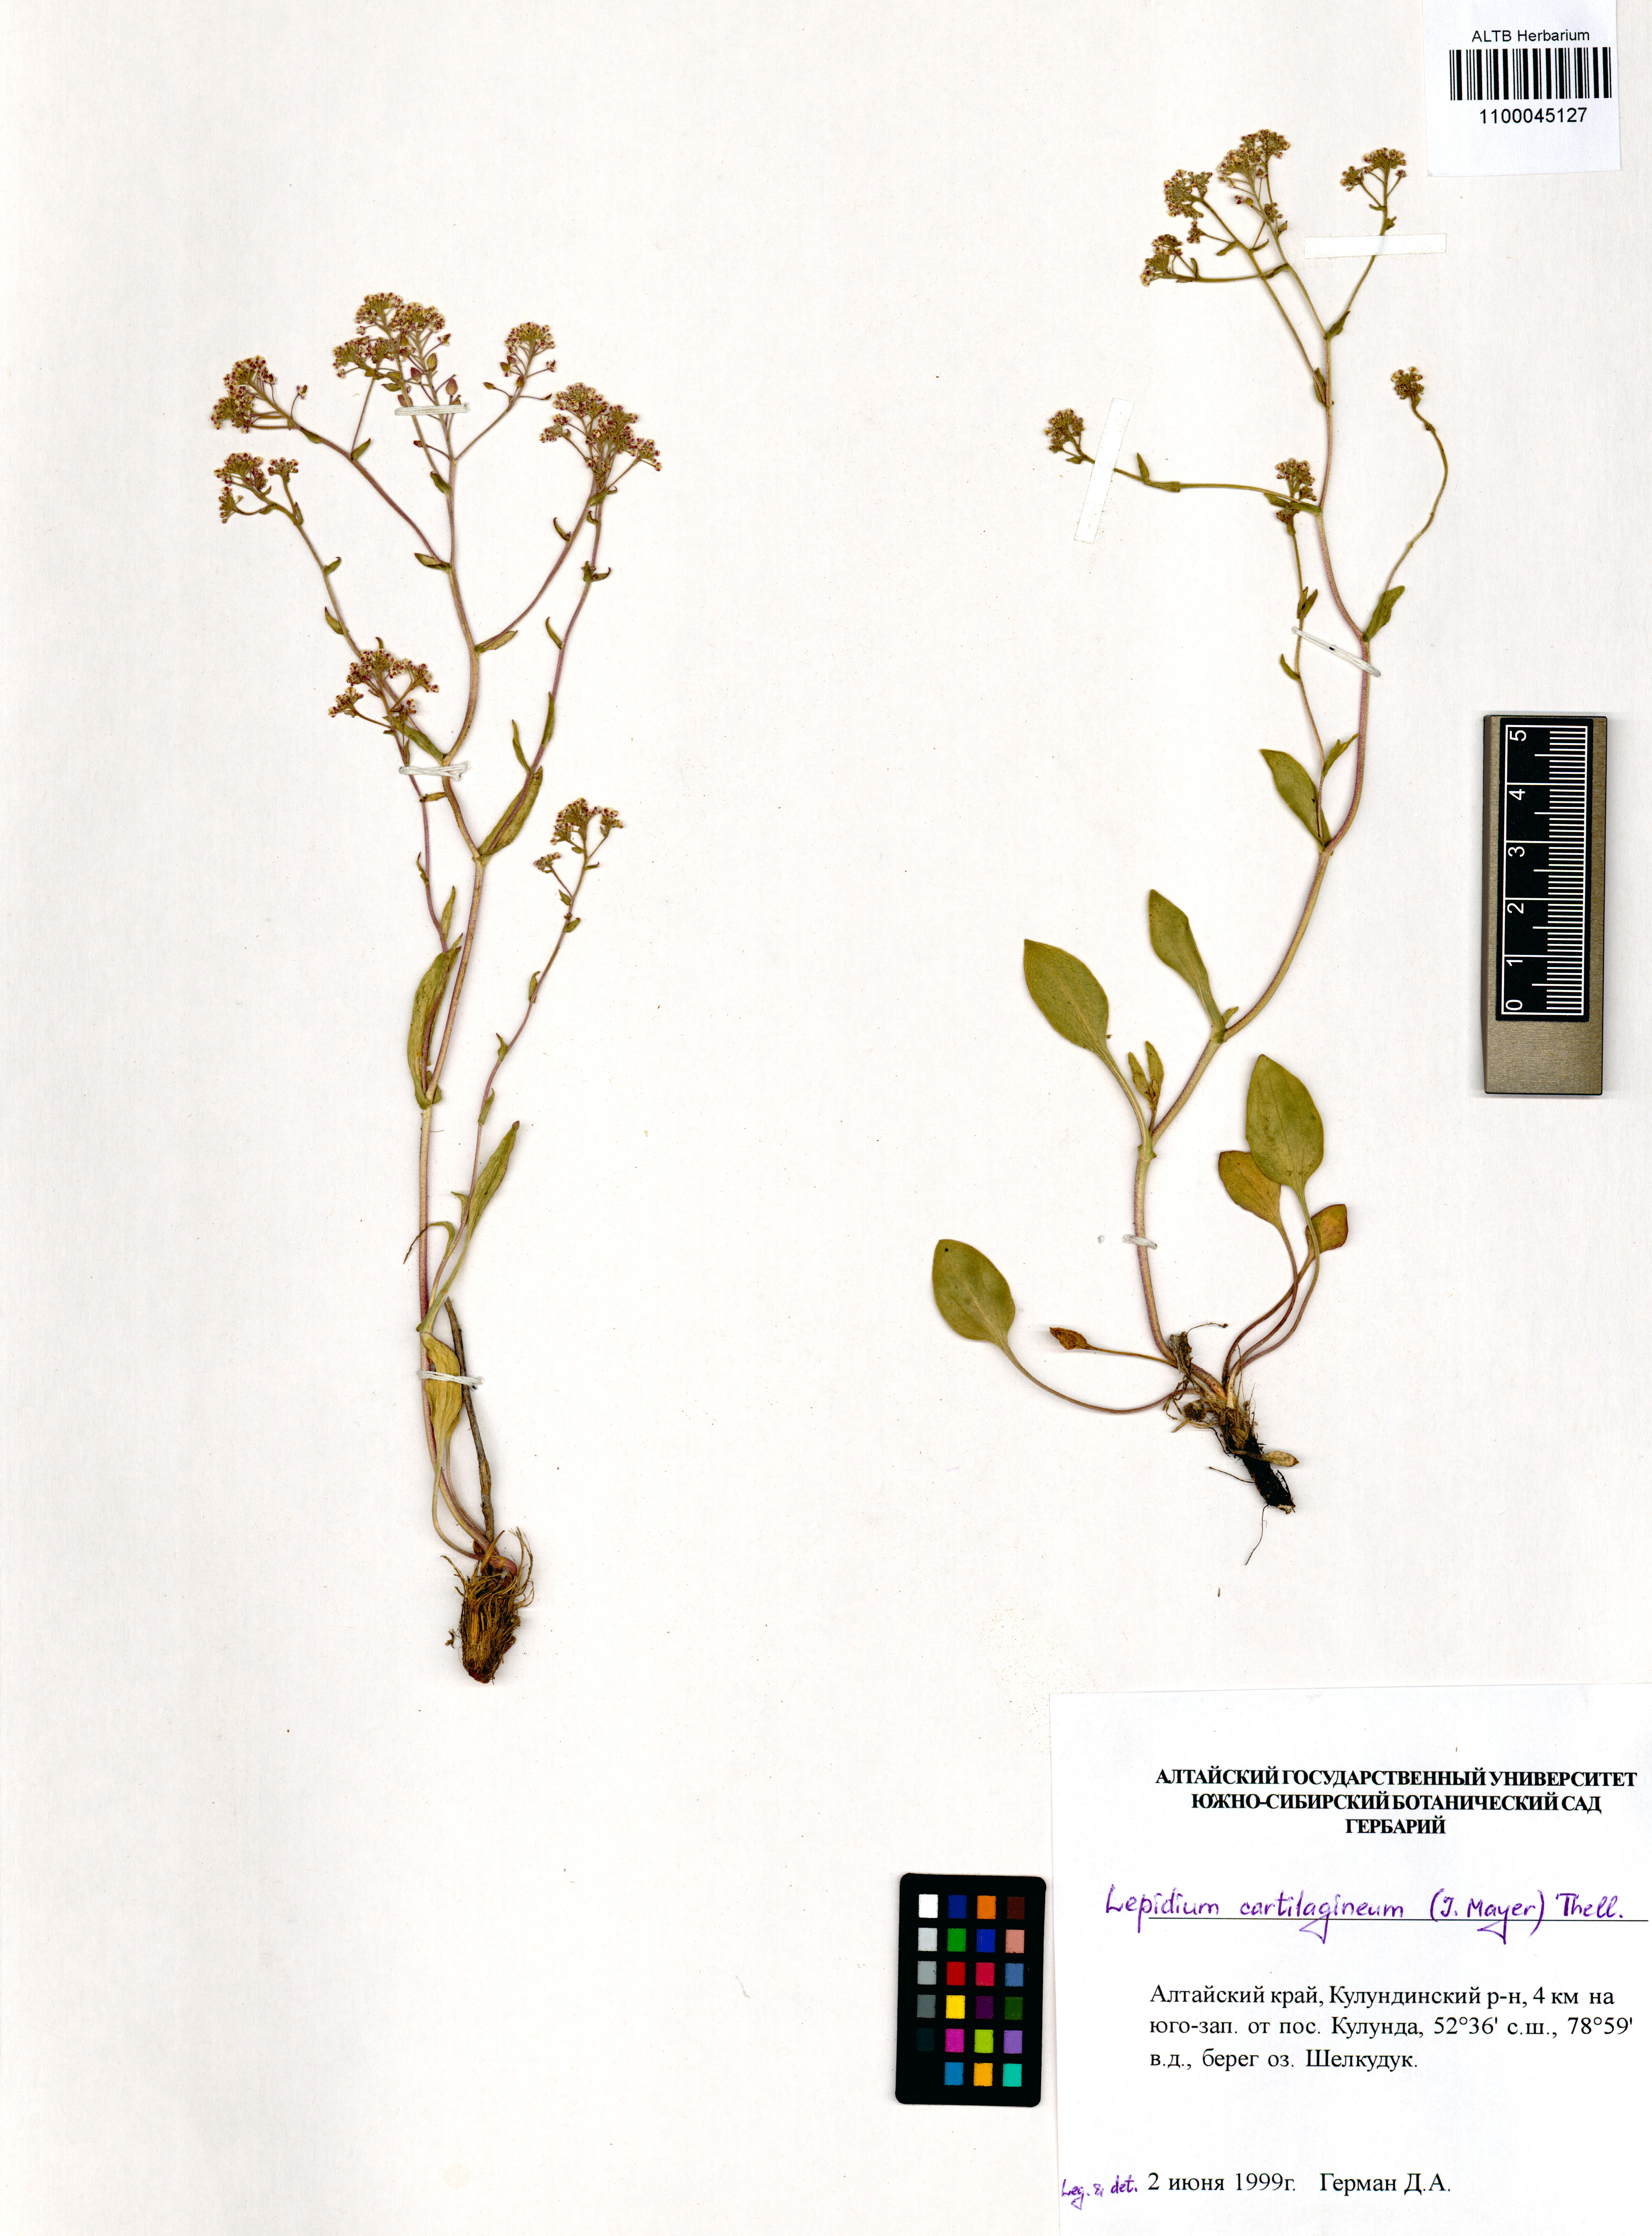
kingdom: Plantae
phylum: Tracheophyta
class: Magnoliopsida
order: Brassicales
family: Brassicaceae
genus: Lepidium
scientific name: Lepidium cartilagineum
